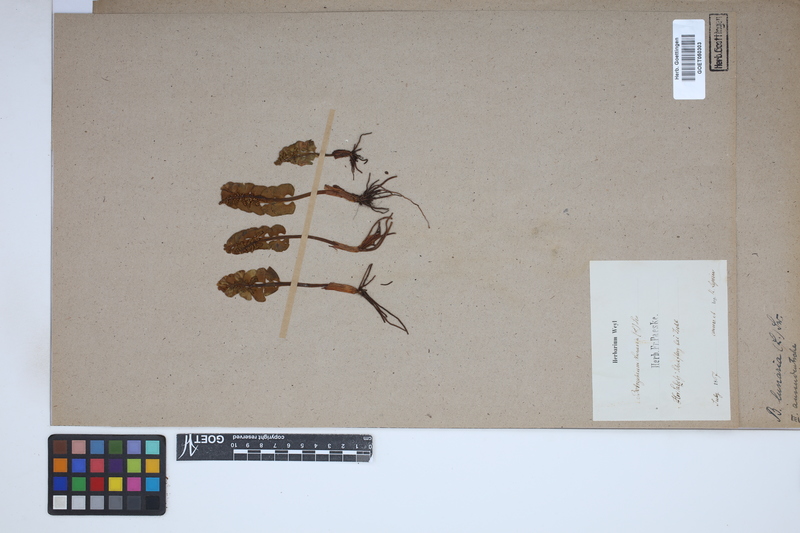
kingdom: Plantae
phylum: Tracheophyta
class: Polypodiopsida
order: Ophioglossales
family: Ophioglossaceae
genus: Botrychium
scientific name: Botrychium lunaria
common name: Moonwort
